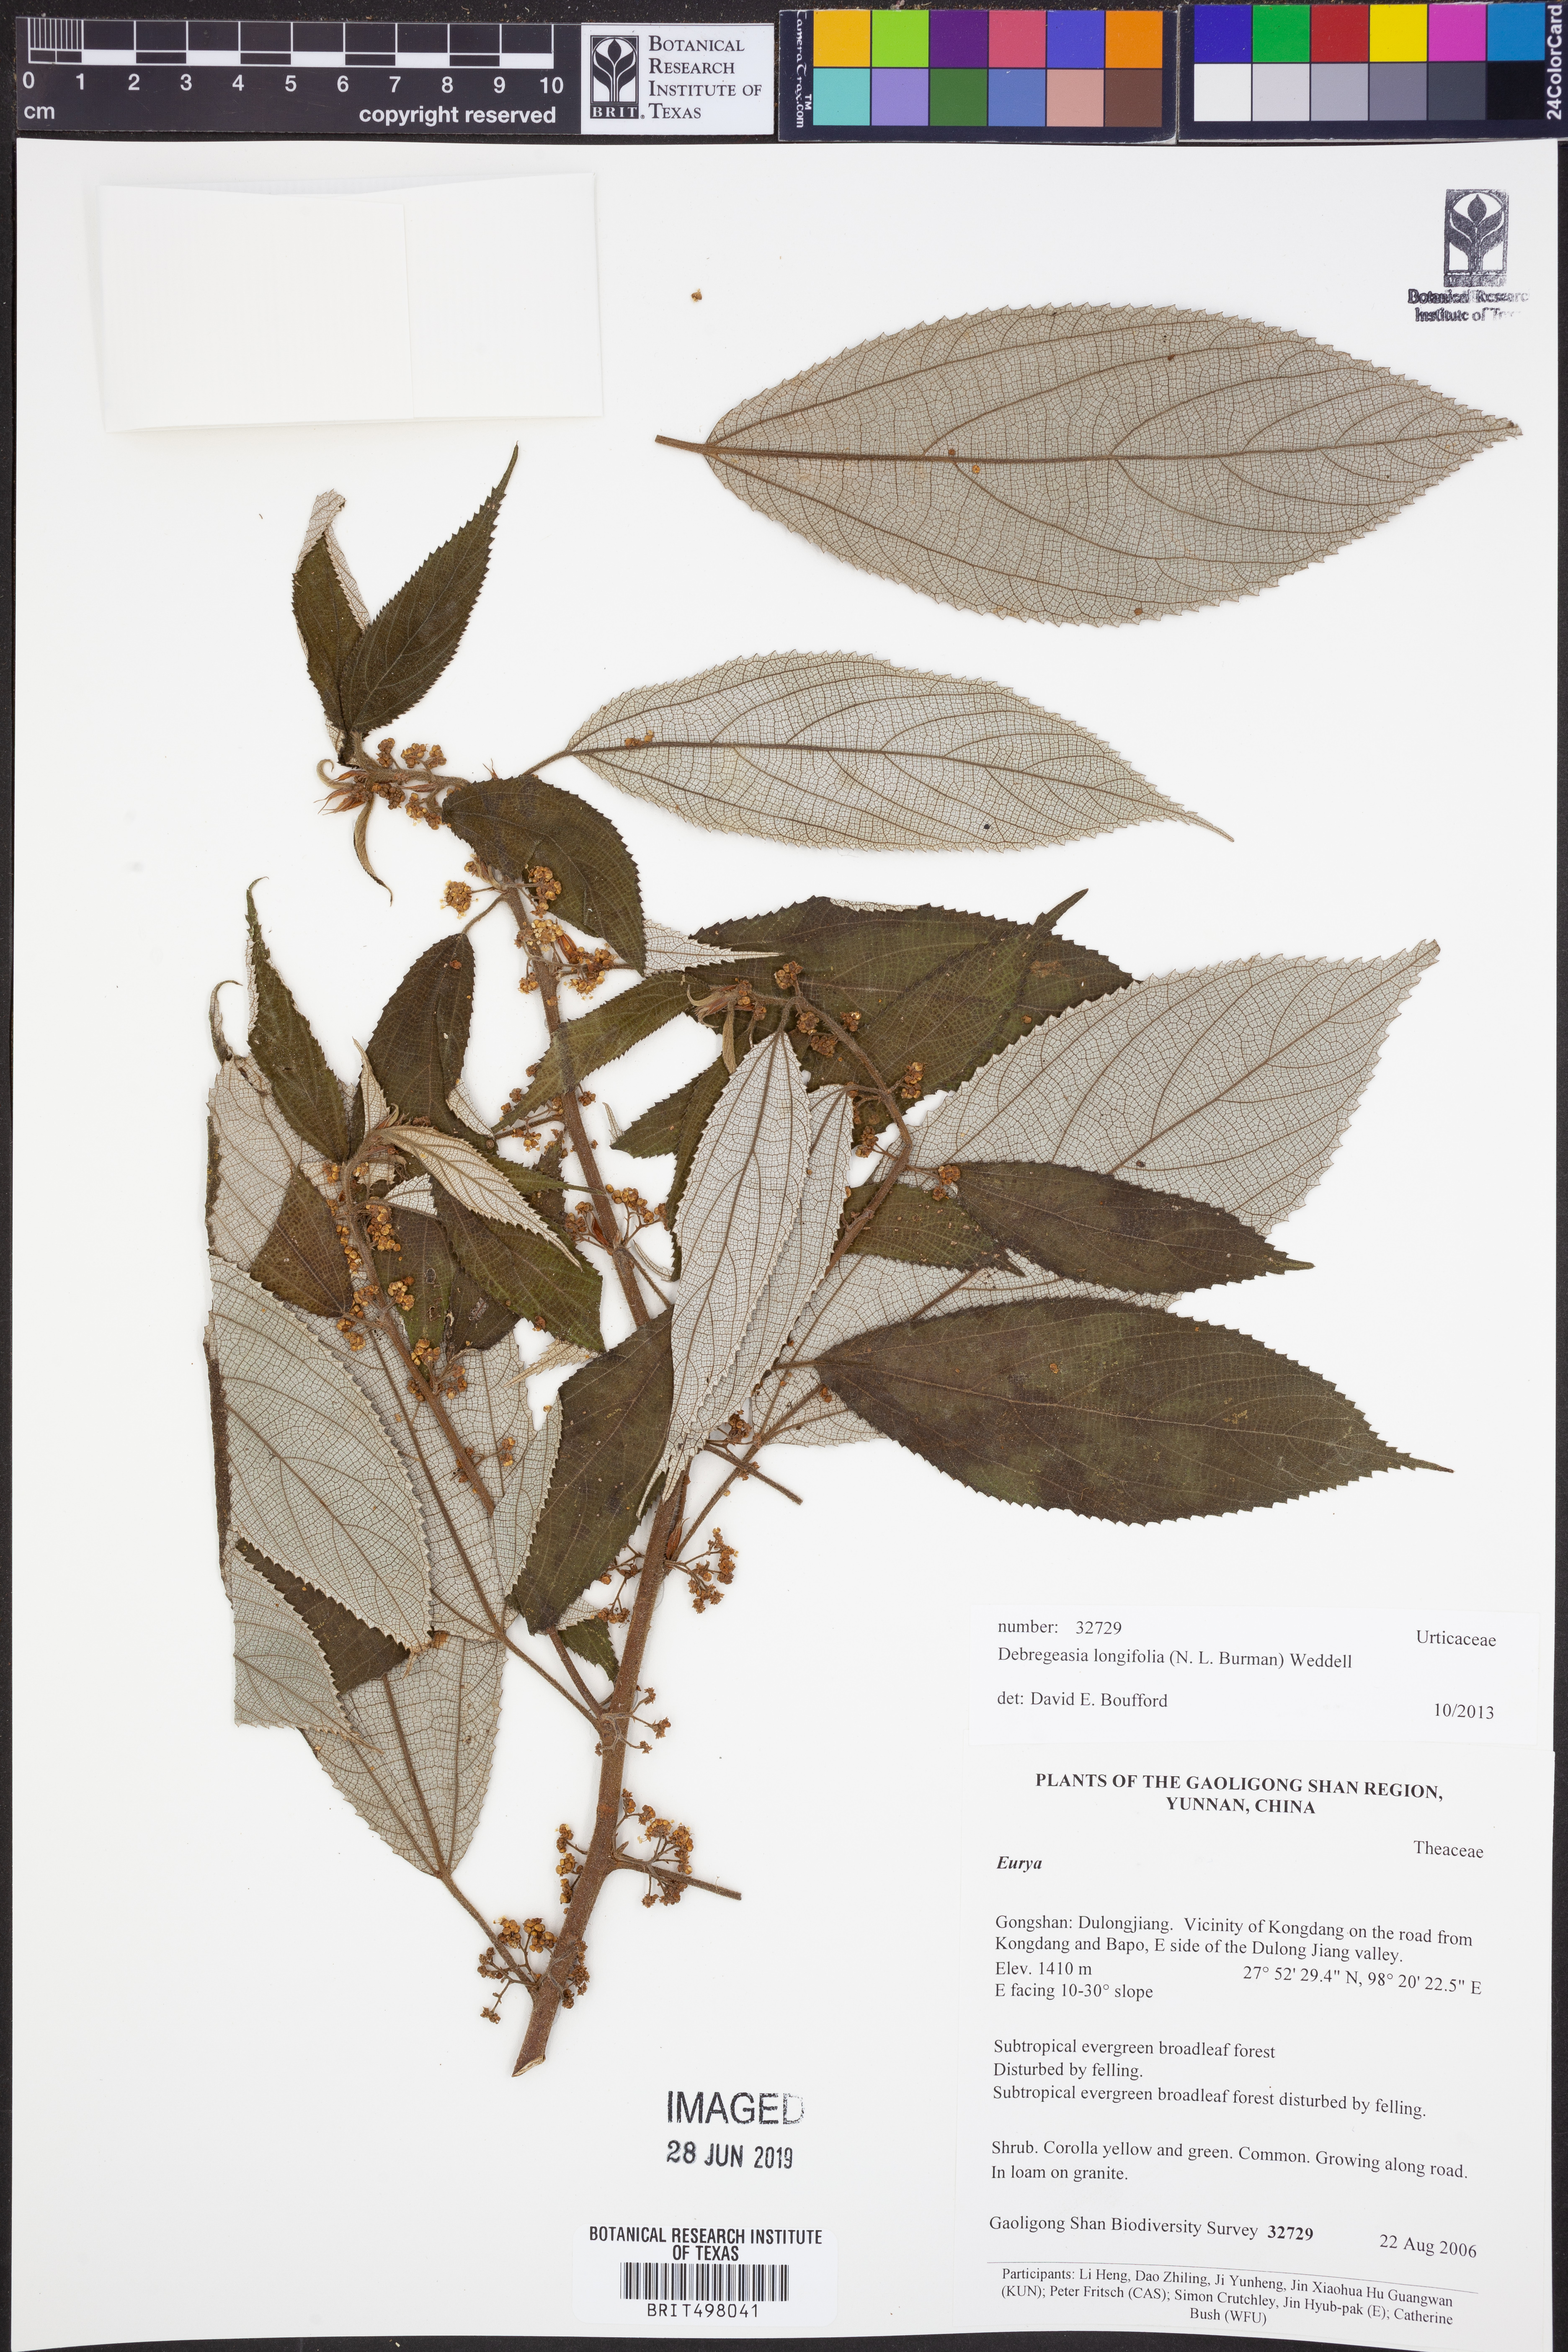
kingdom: Plantae
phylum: Tracheophyta
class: Magnoliopsida
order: Rosales
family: Urticaceae
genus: Debregeasia
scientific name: Debregeasia longifolia
